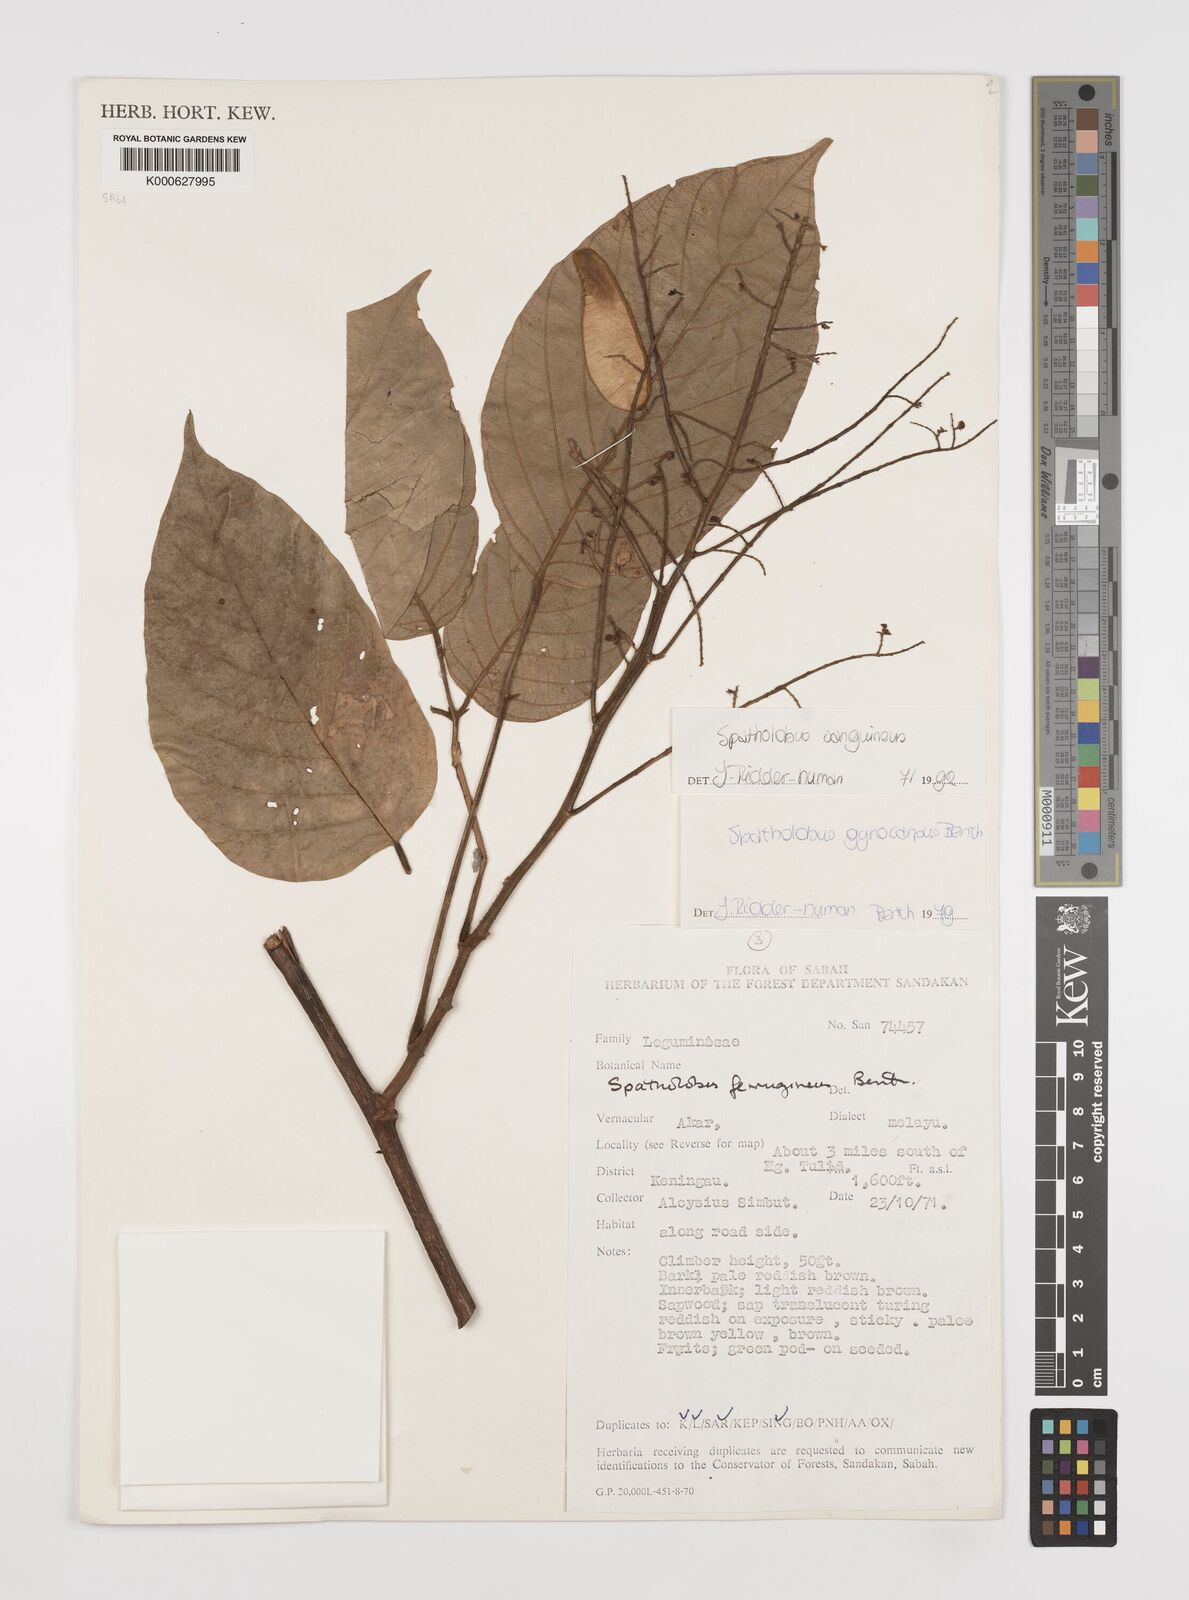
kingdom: Plantae
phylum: Tracheophyta
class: Magnoliopsida
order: Fabales
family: Fabaceae
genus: Spatholobus
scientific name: Spatholobus
